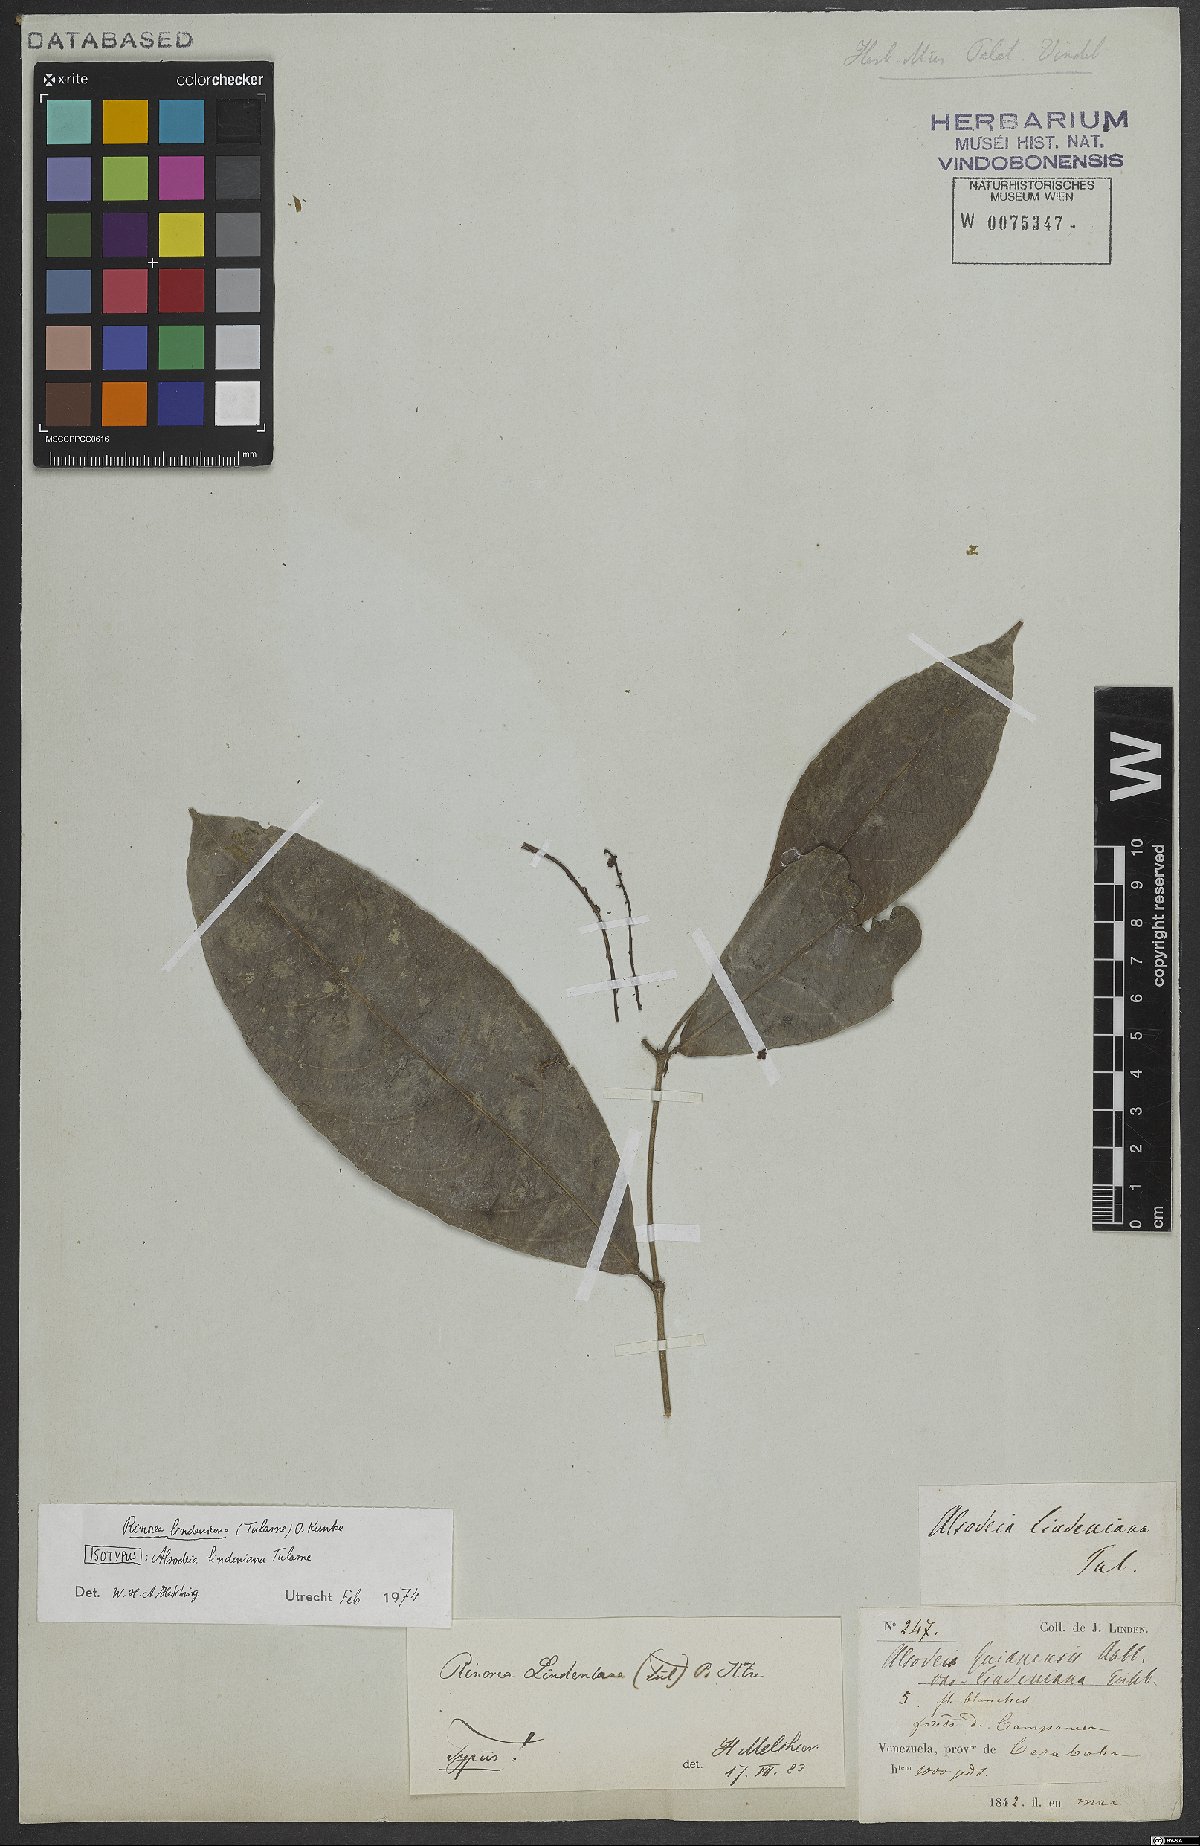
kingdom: Plantae
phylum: Tracheophyta
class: Magnoliopsida
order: Malpighiales
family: Violaceae
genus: Rinorea
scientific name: Rinorea lindeniana
